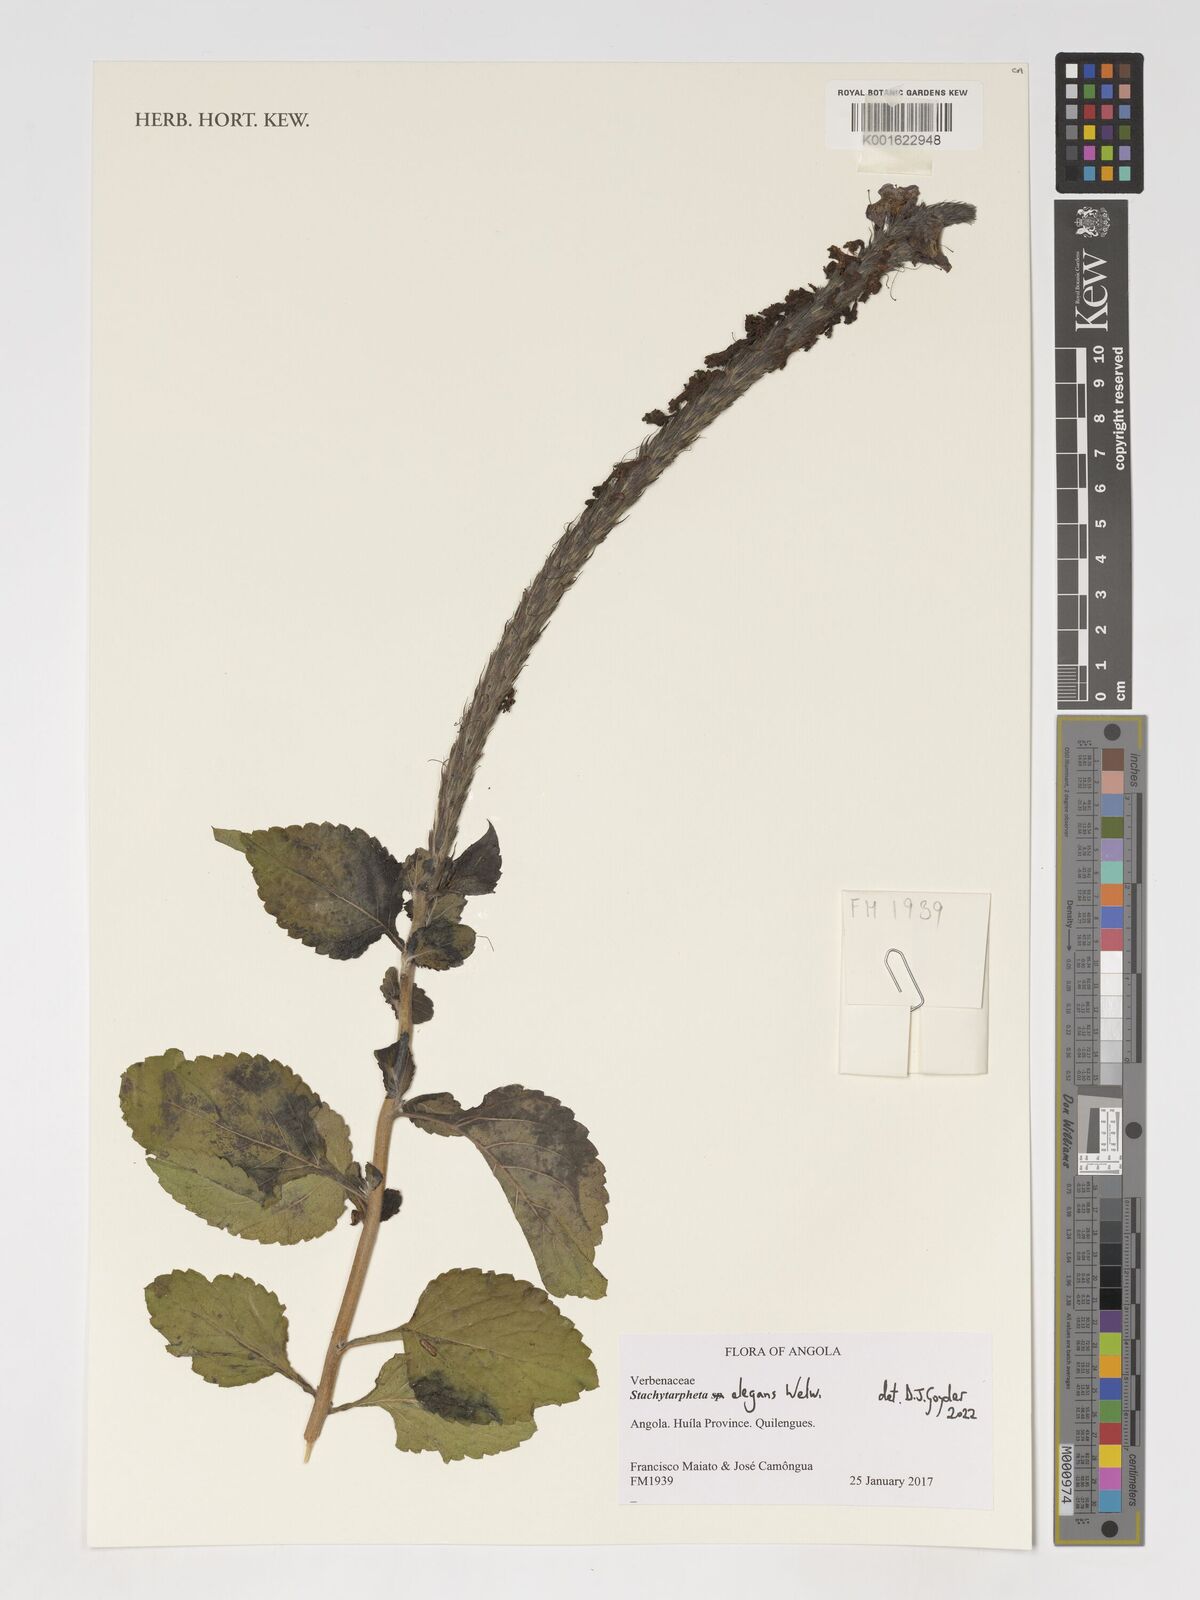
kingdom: Plantae
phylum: Tracheophyta
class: Magnoliopsida
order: Lamiales
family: Verbenaceae
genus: Stachytarpheta
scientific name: Stachytarpheta elegans
